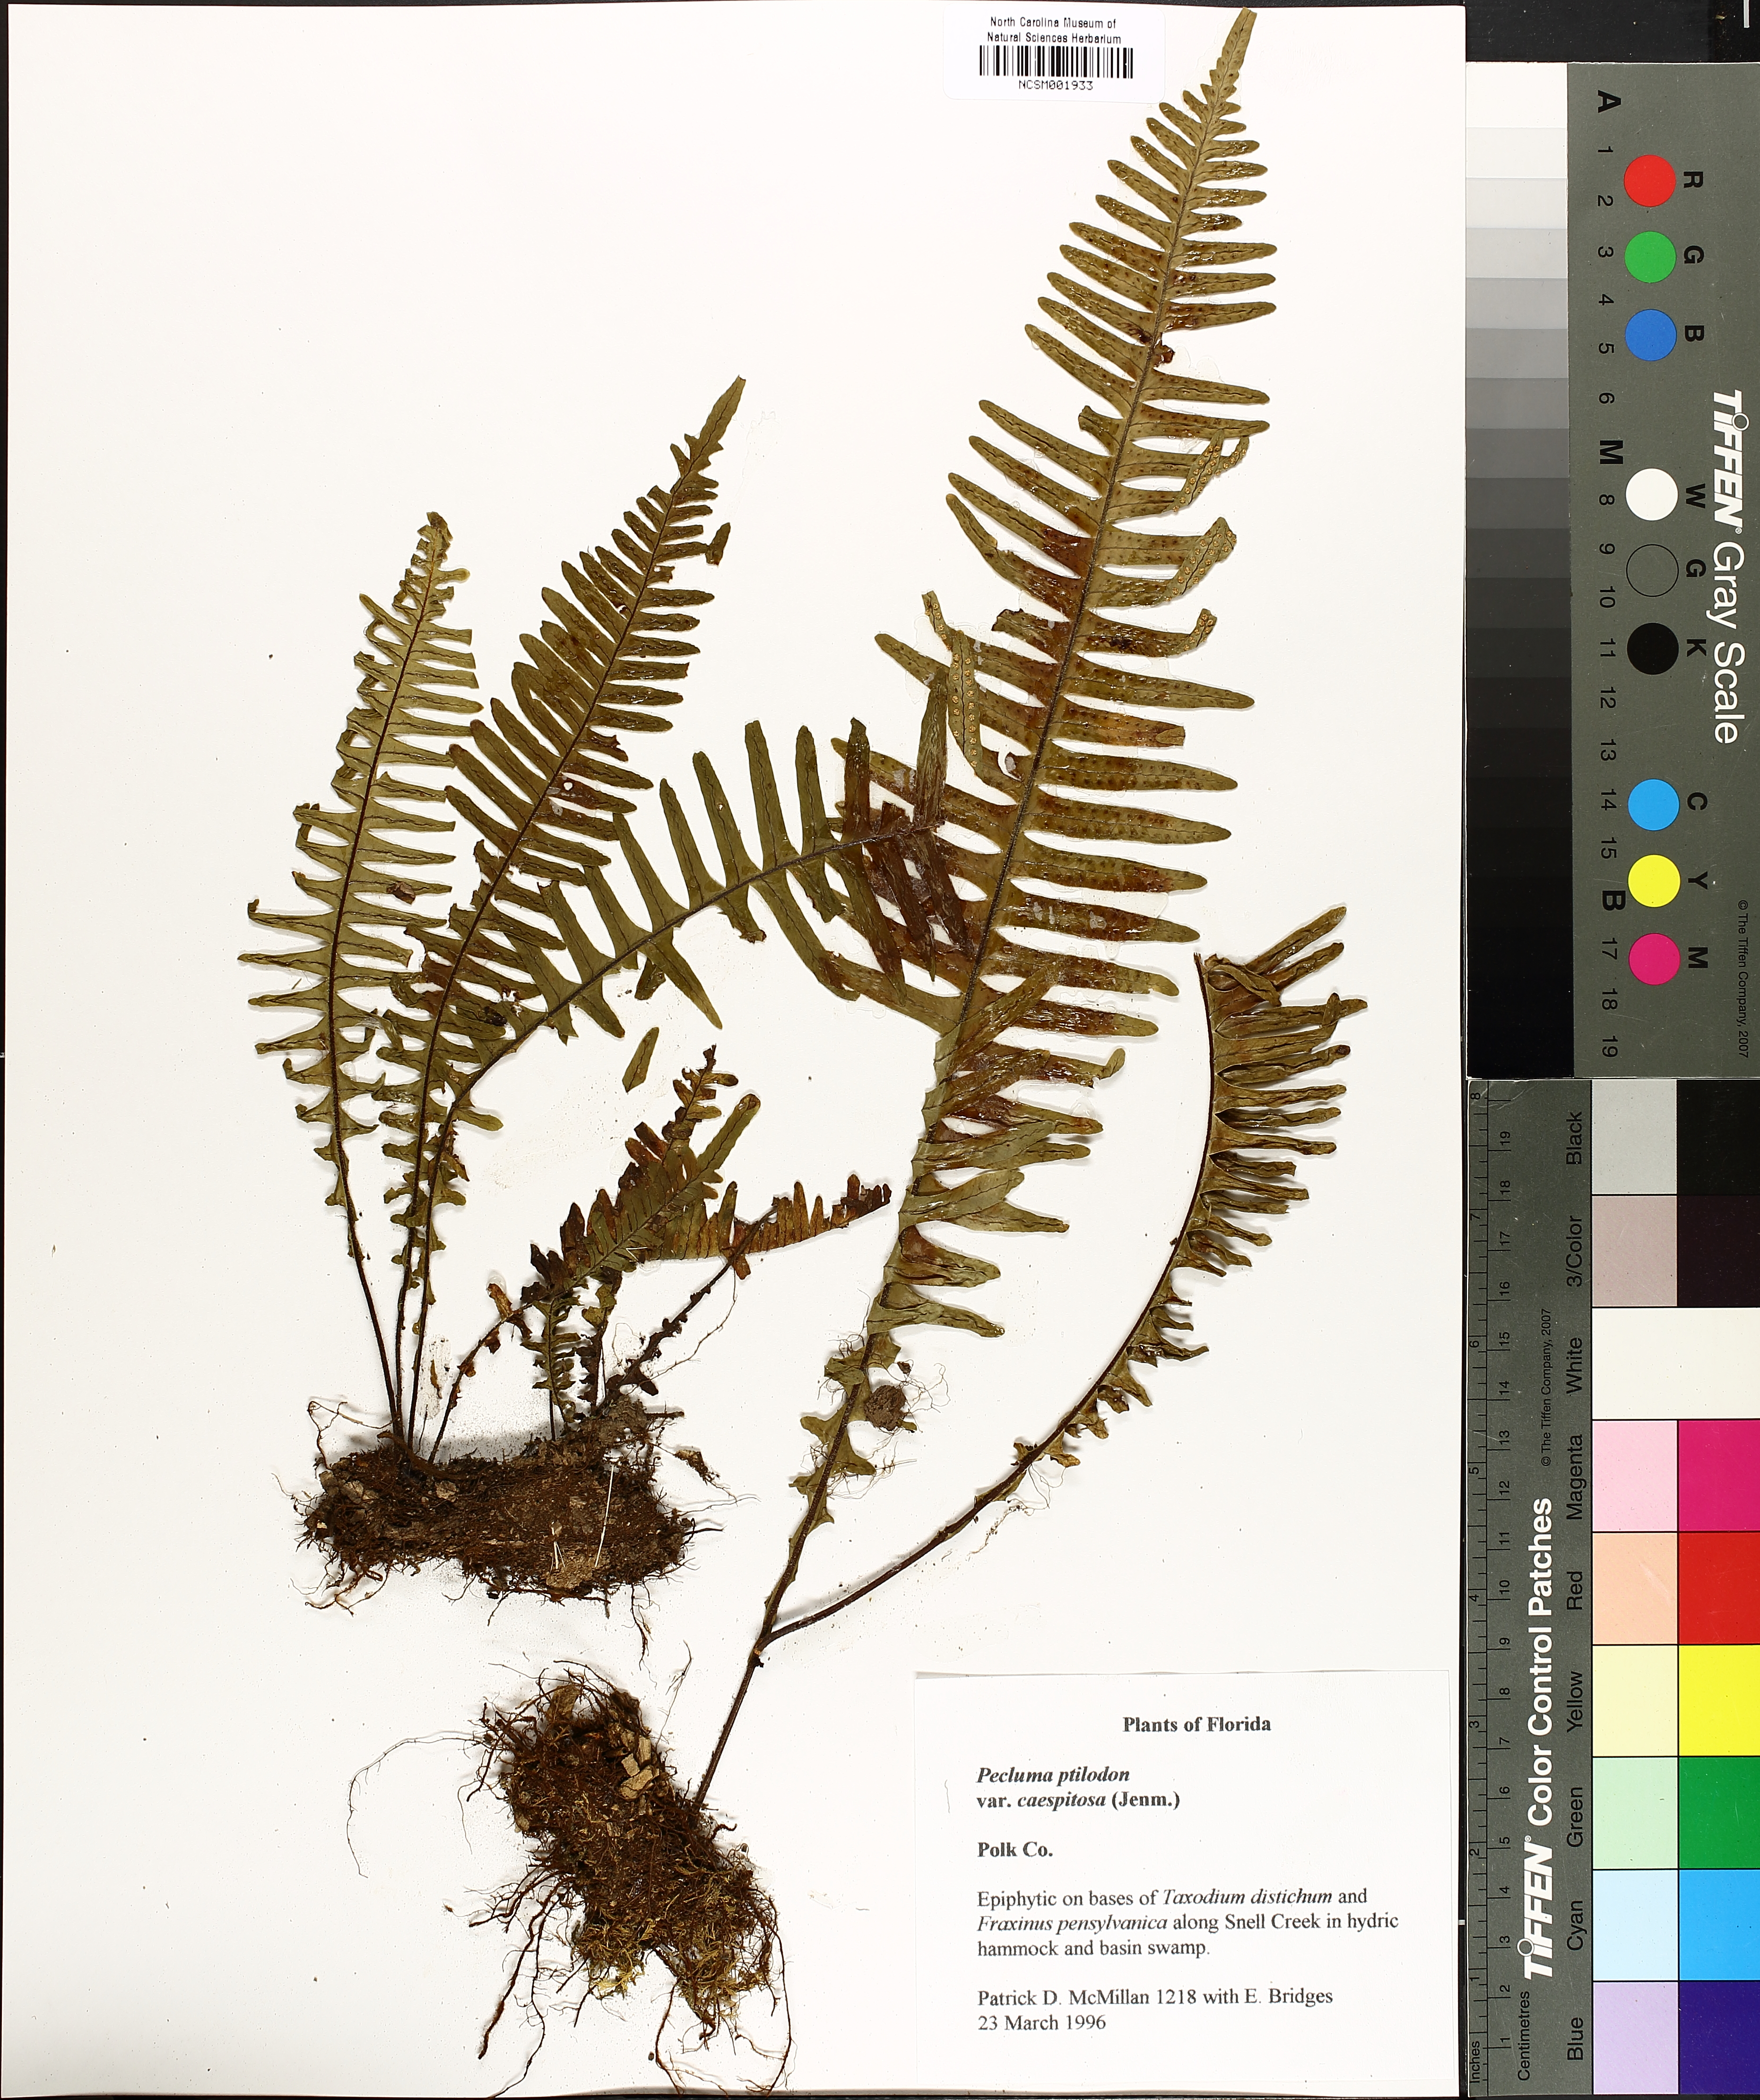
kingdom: Plantae
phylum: Tracheophyta
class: Polypodiopsida
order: Polypodiales
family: Polypodiaceae
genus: Pecluma
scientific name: Pecluma bourgeauana
